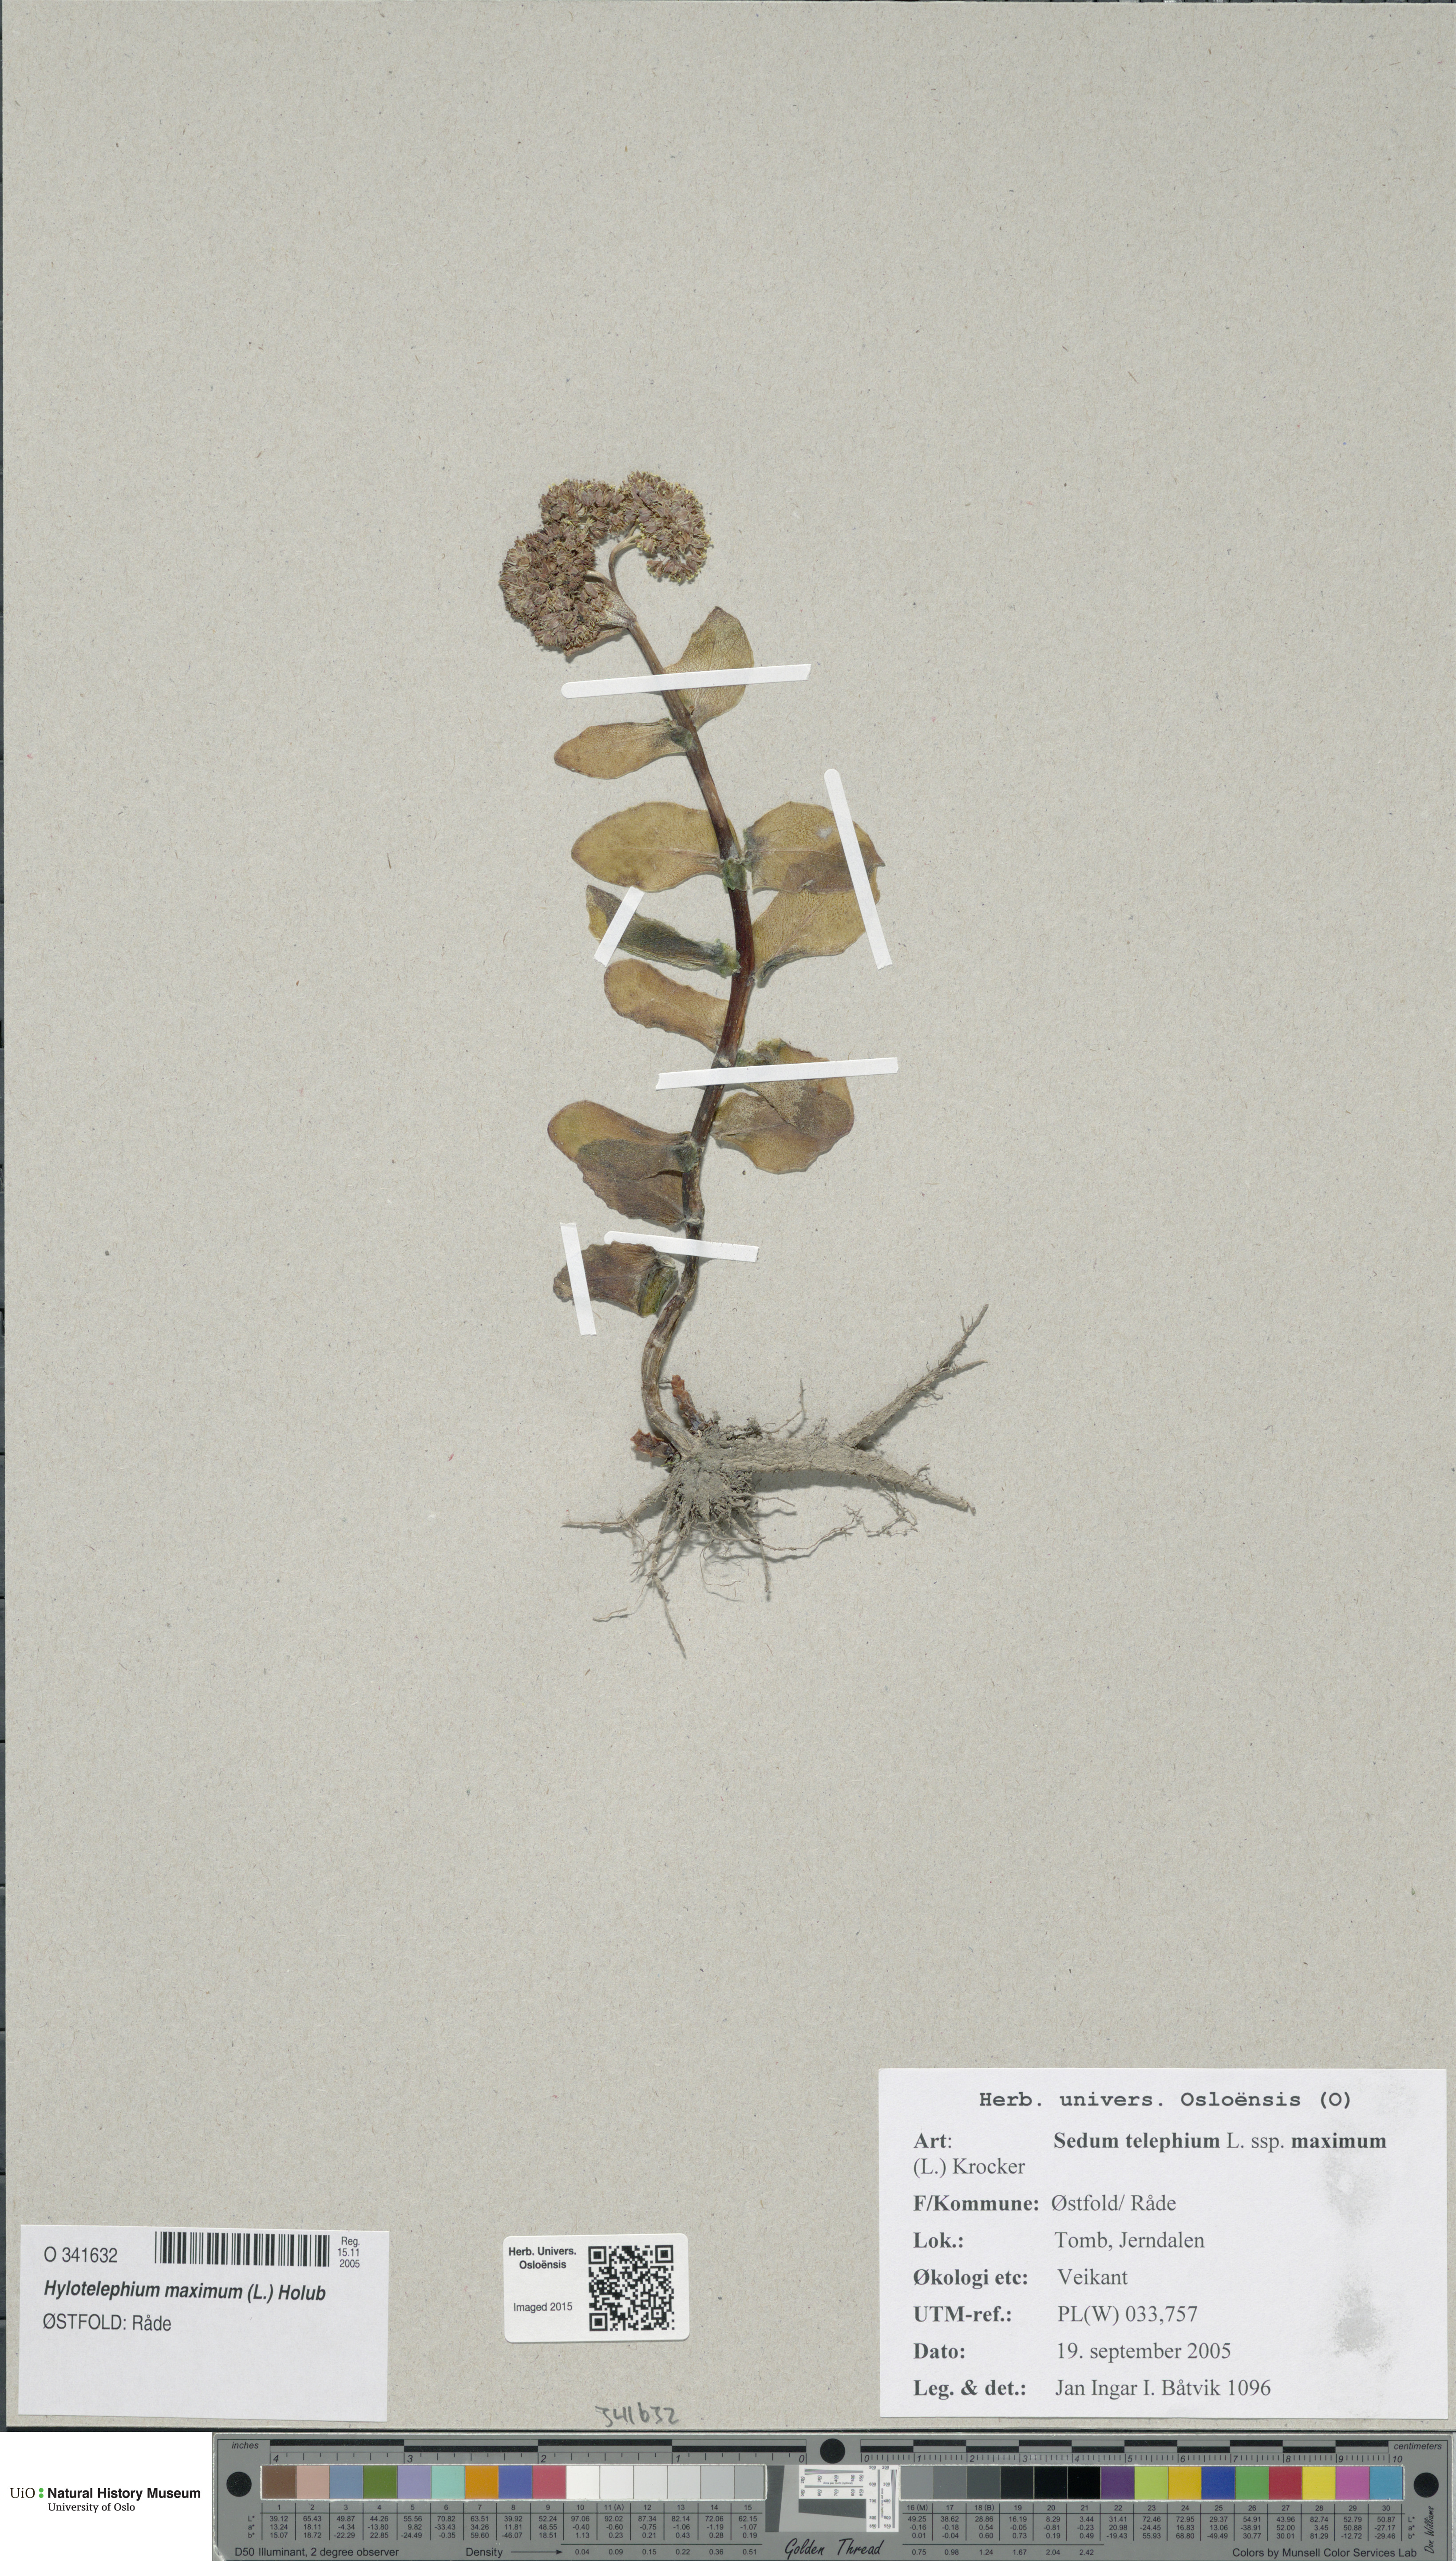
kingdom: Plantae
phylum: Tracheophyta
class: Magnoliopsida
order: Saxifragales
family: Crassulaceae
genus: Hylotelephium
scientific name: Hylotelephium maximum
